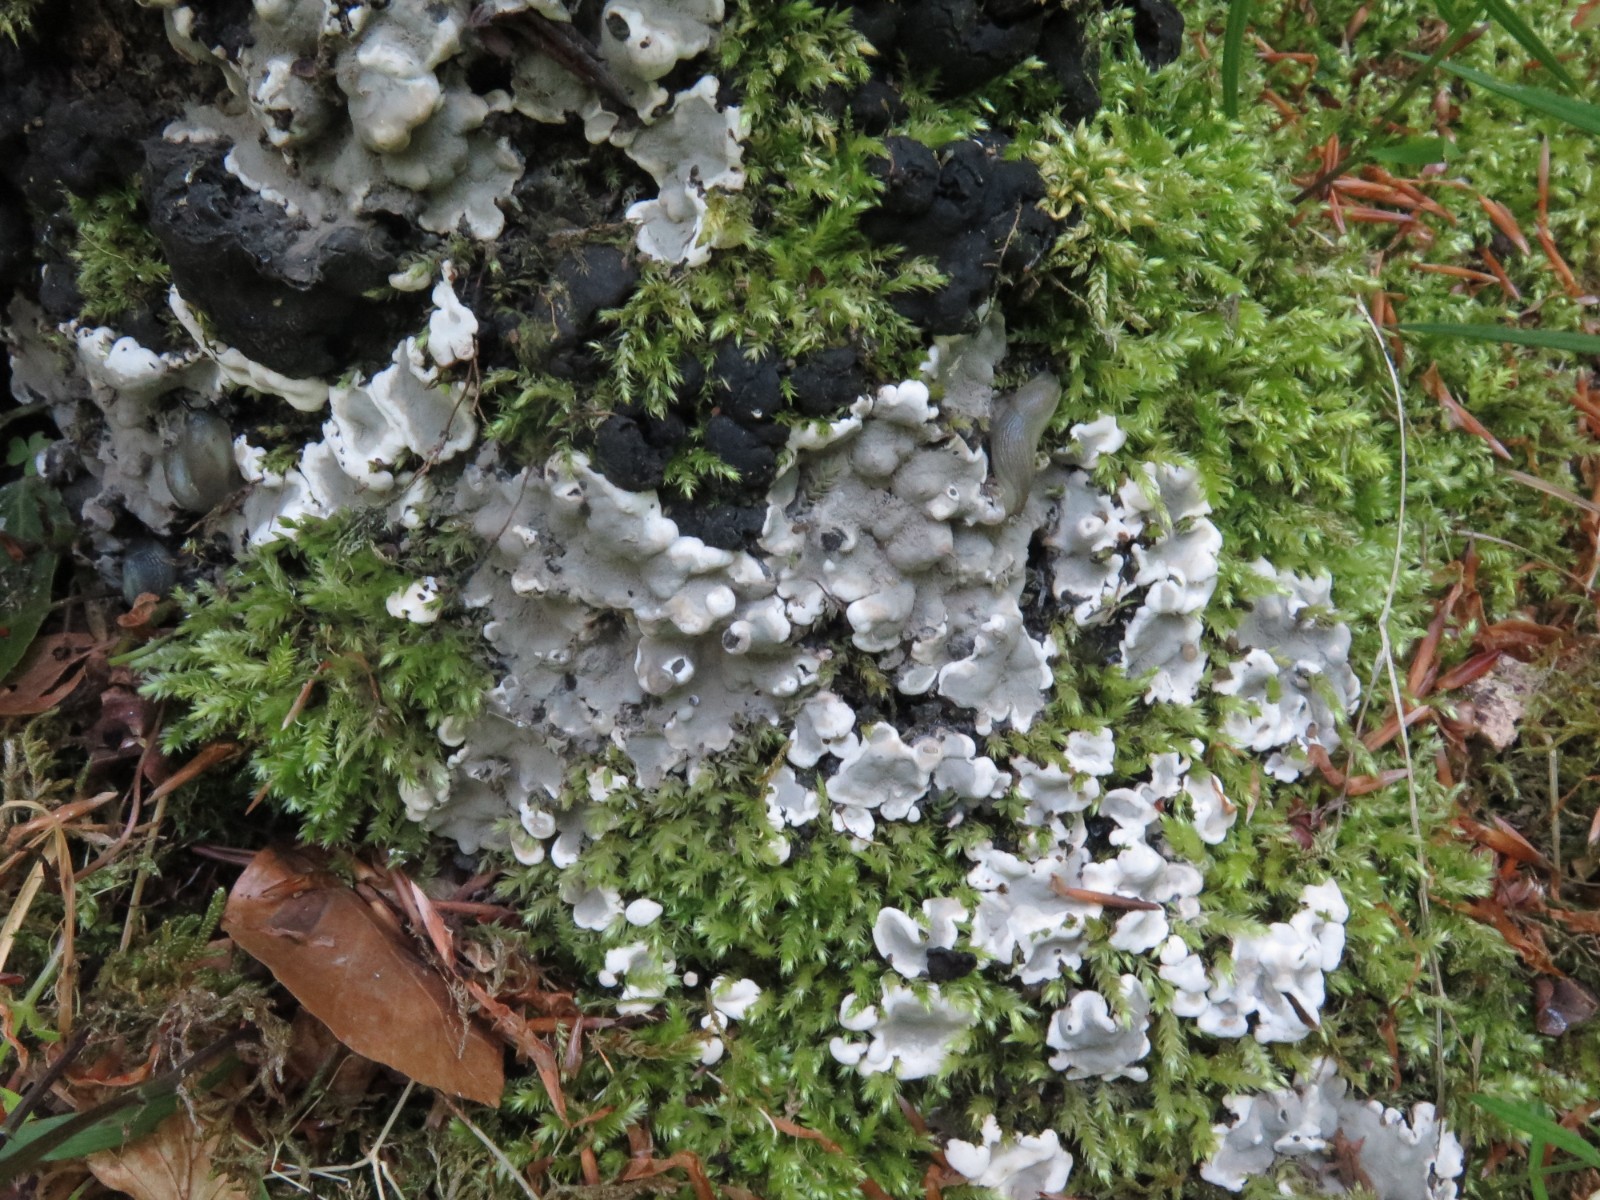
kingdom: Fungi
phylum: Ascomycota
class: Sordariomycetes
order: Xylariales
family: Xylariaceae
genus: Kretzschmaria
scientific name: Kretzschmaria deusta
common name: stor kulsvamp
